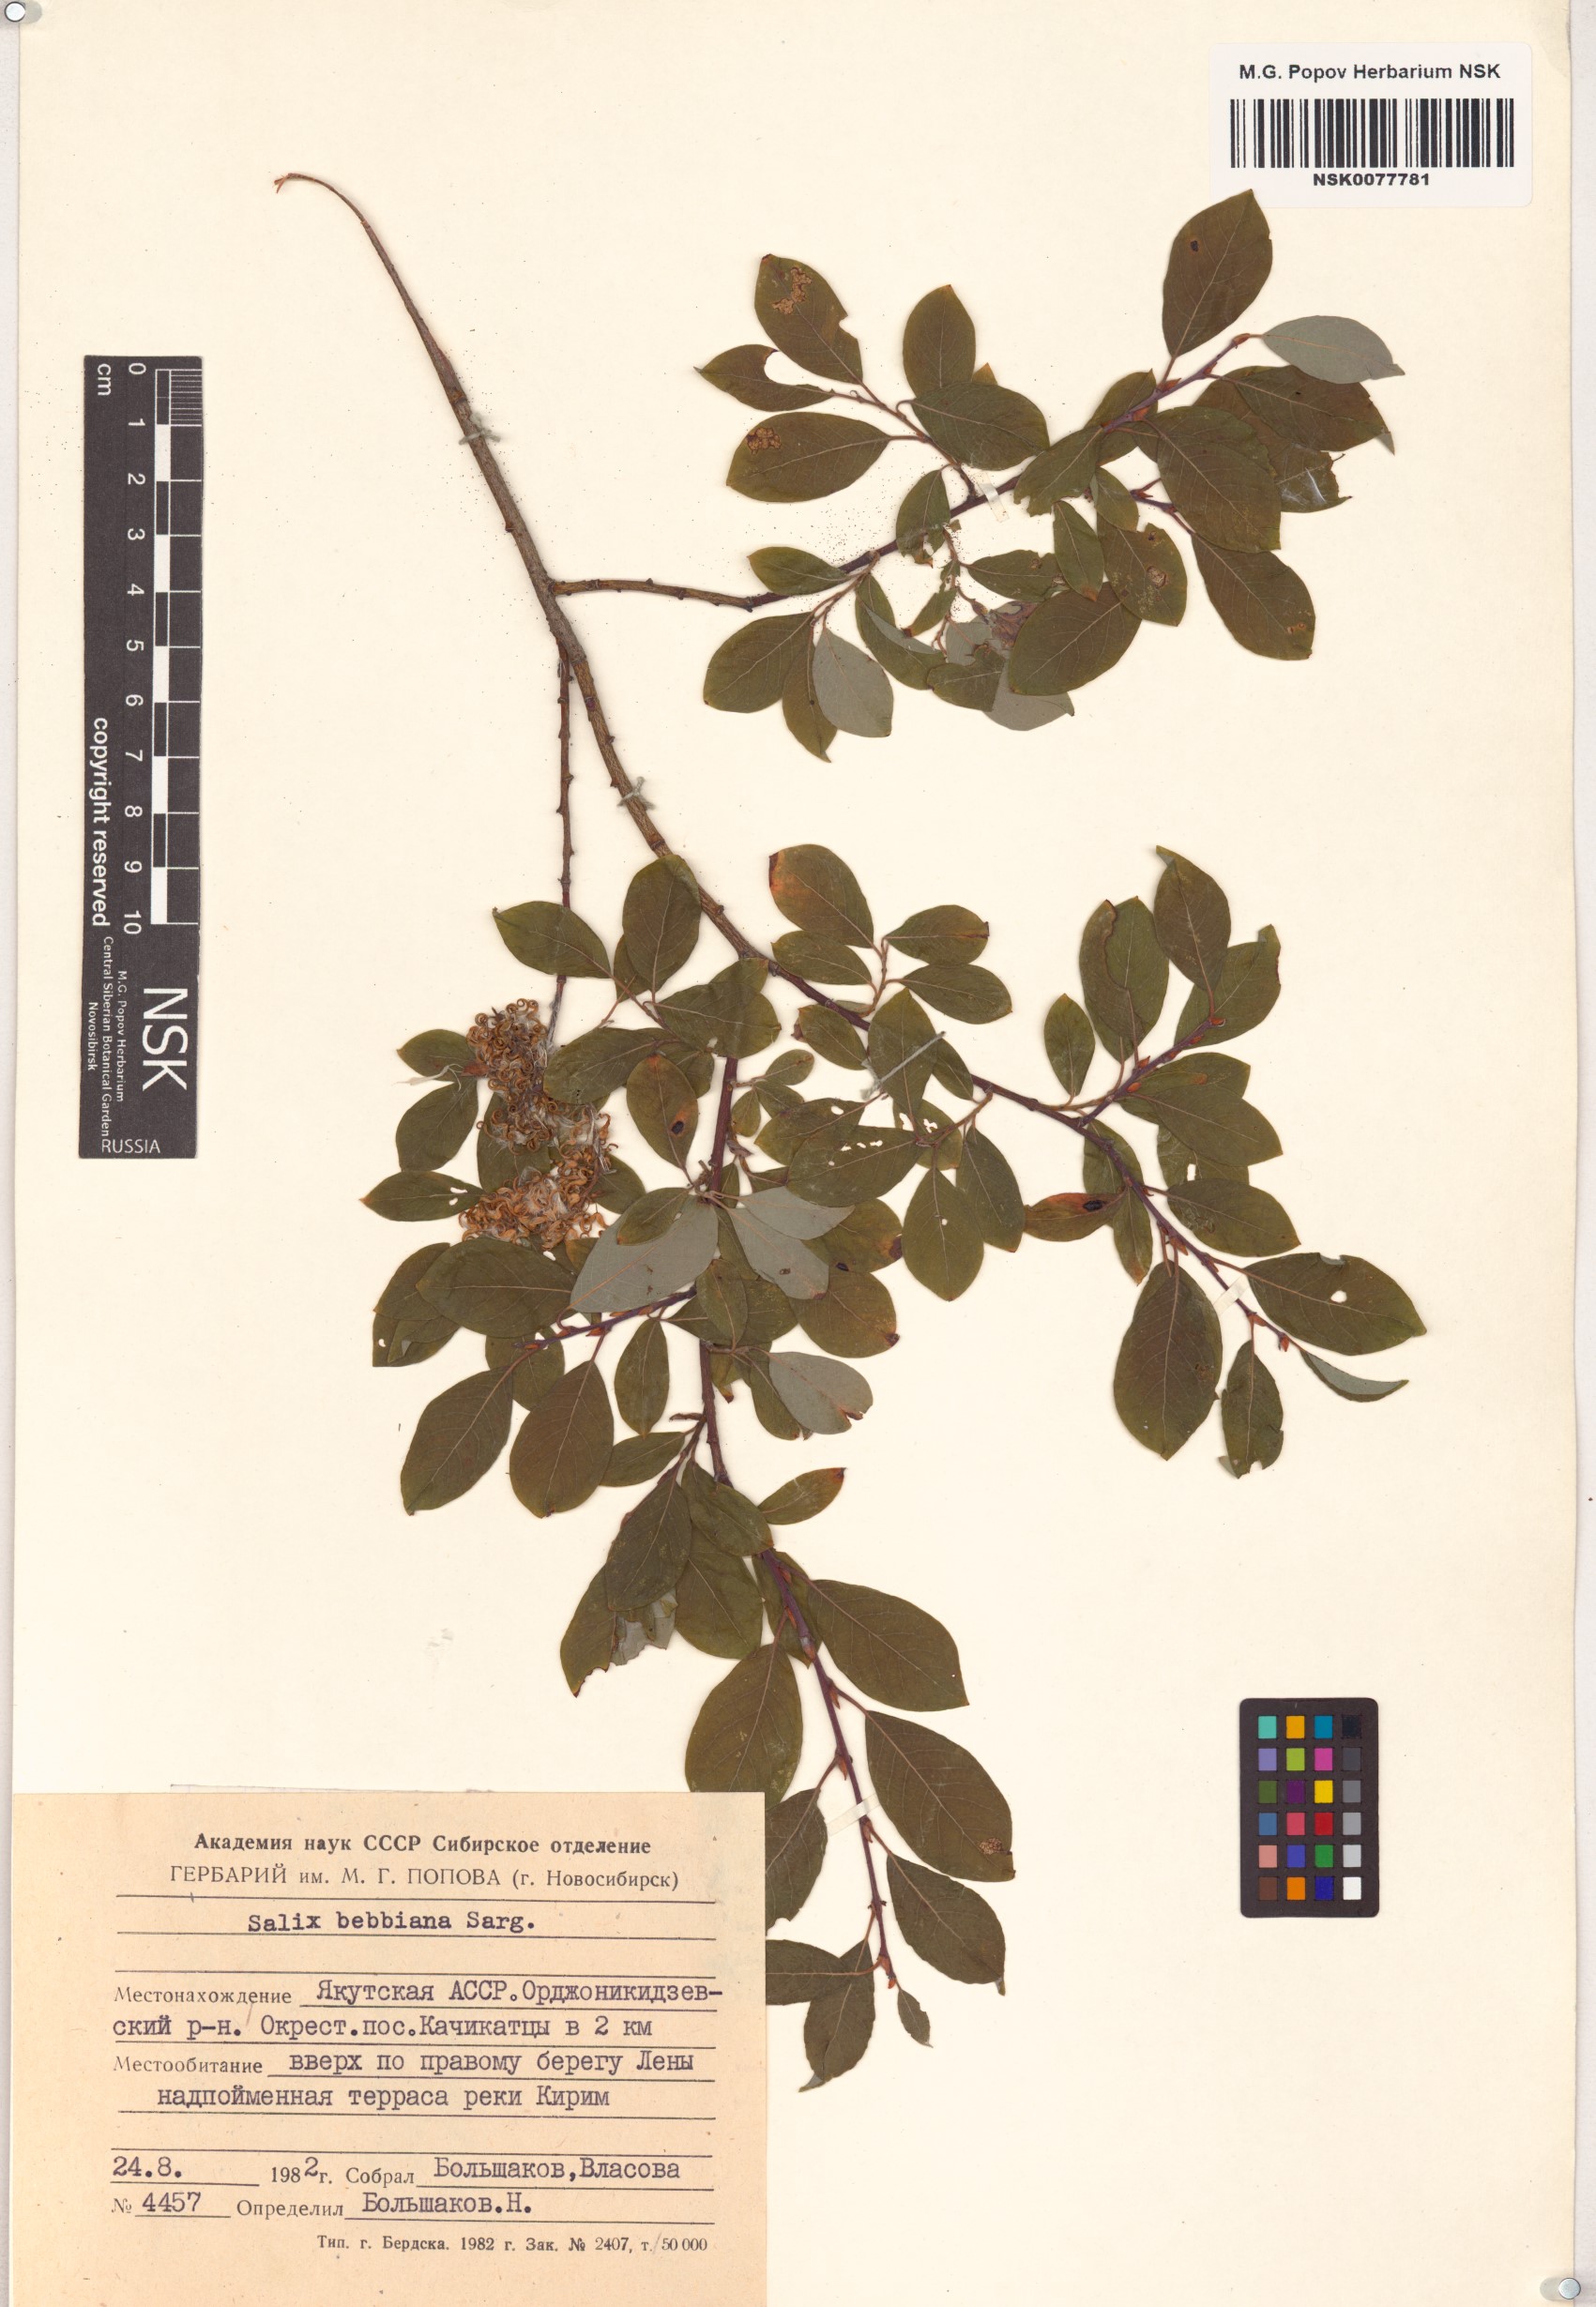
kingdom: Plantae
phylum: Tracheophyta
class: Magnoliopsida
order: Malpighiales
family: Salicaceae
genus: Salix
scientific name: Salix bebbiana
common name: Bebb's willow
